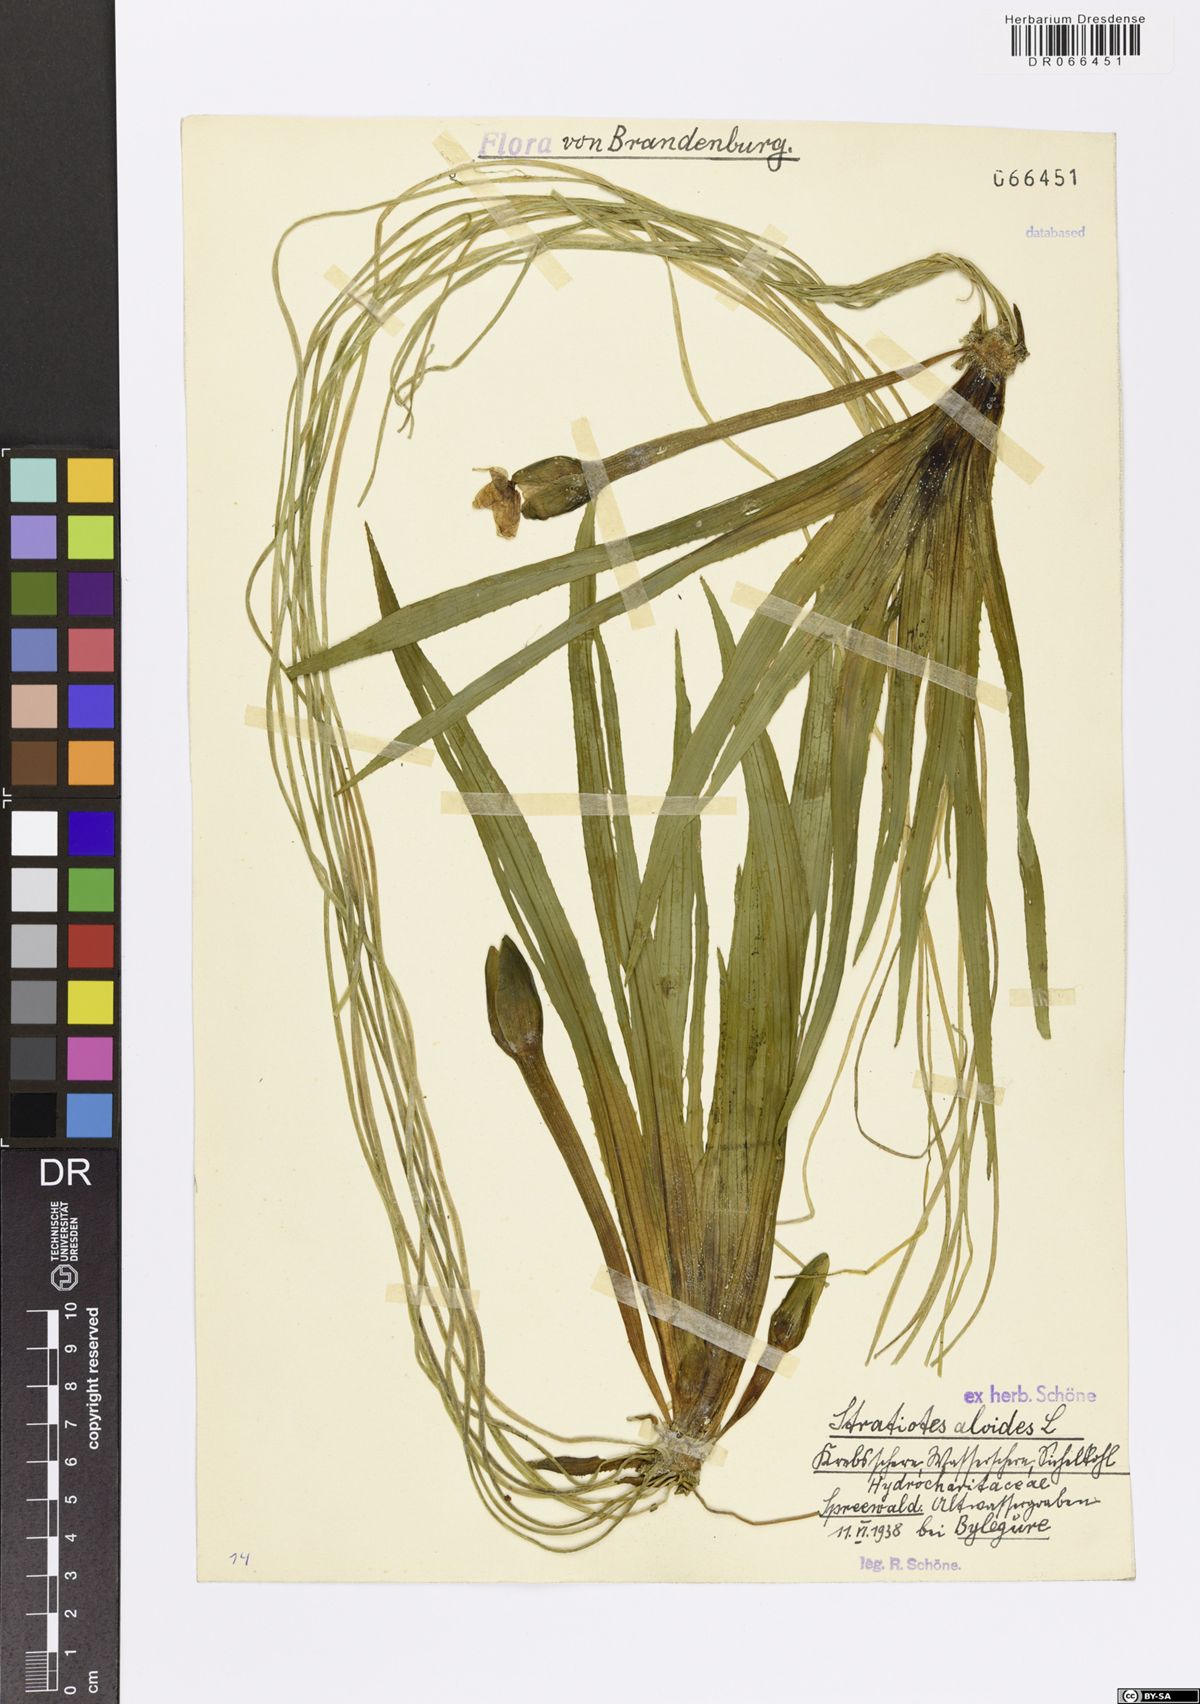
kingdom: Plantae
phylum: Tracheophyta
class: Liliopsida
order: Alismatales
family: Hydrocharitaceae
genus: Stratiotes
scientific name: Stratiotes aloides
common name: Water-soldier
